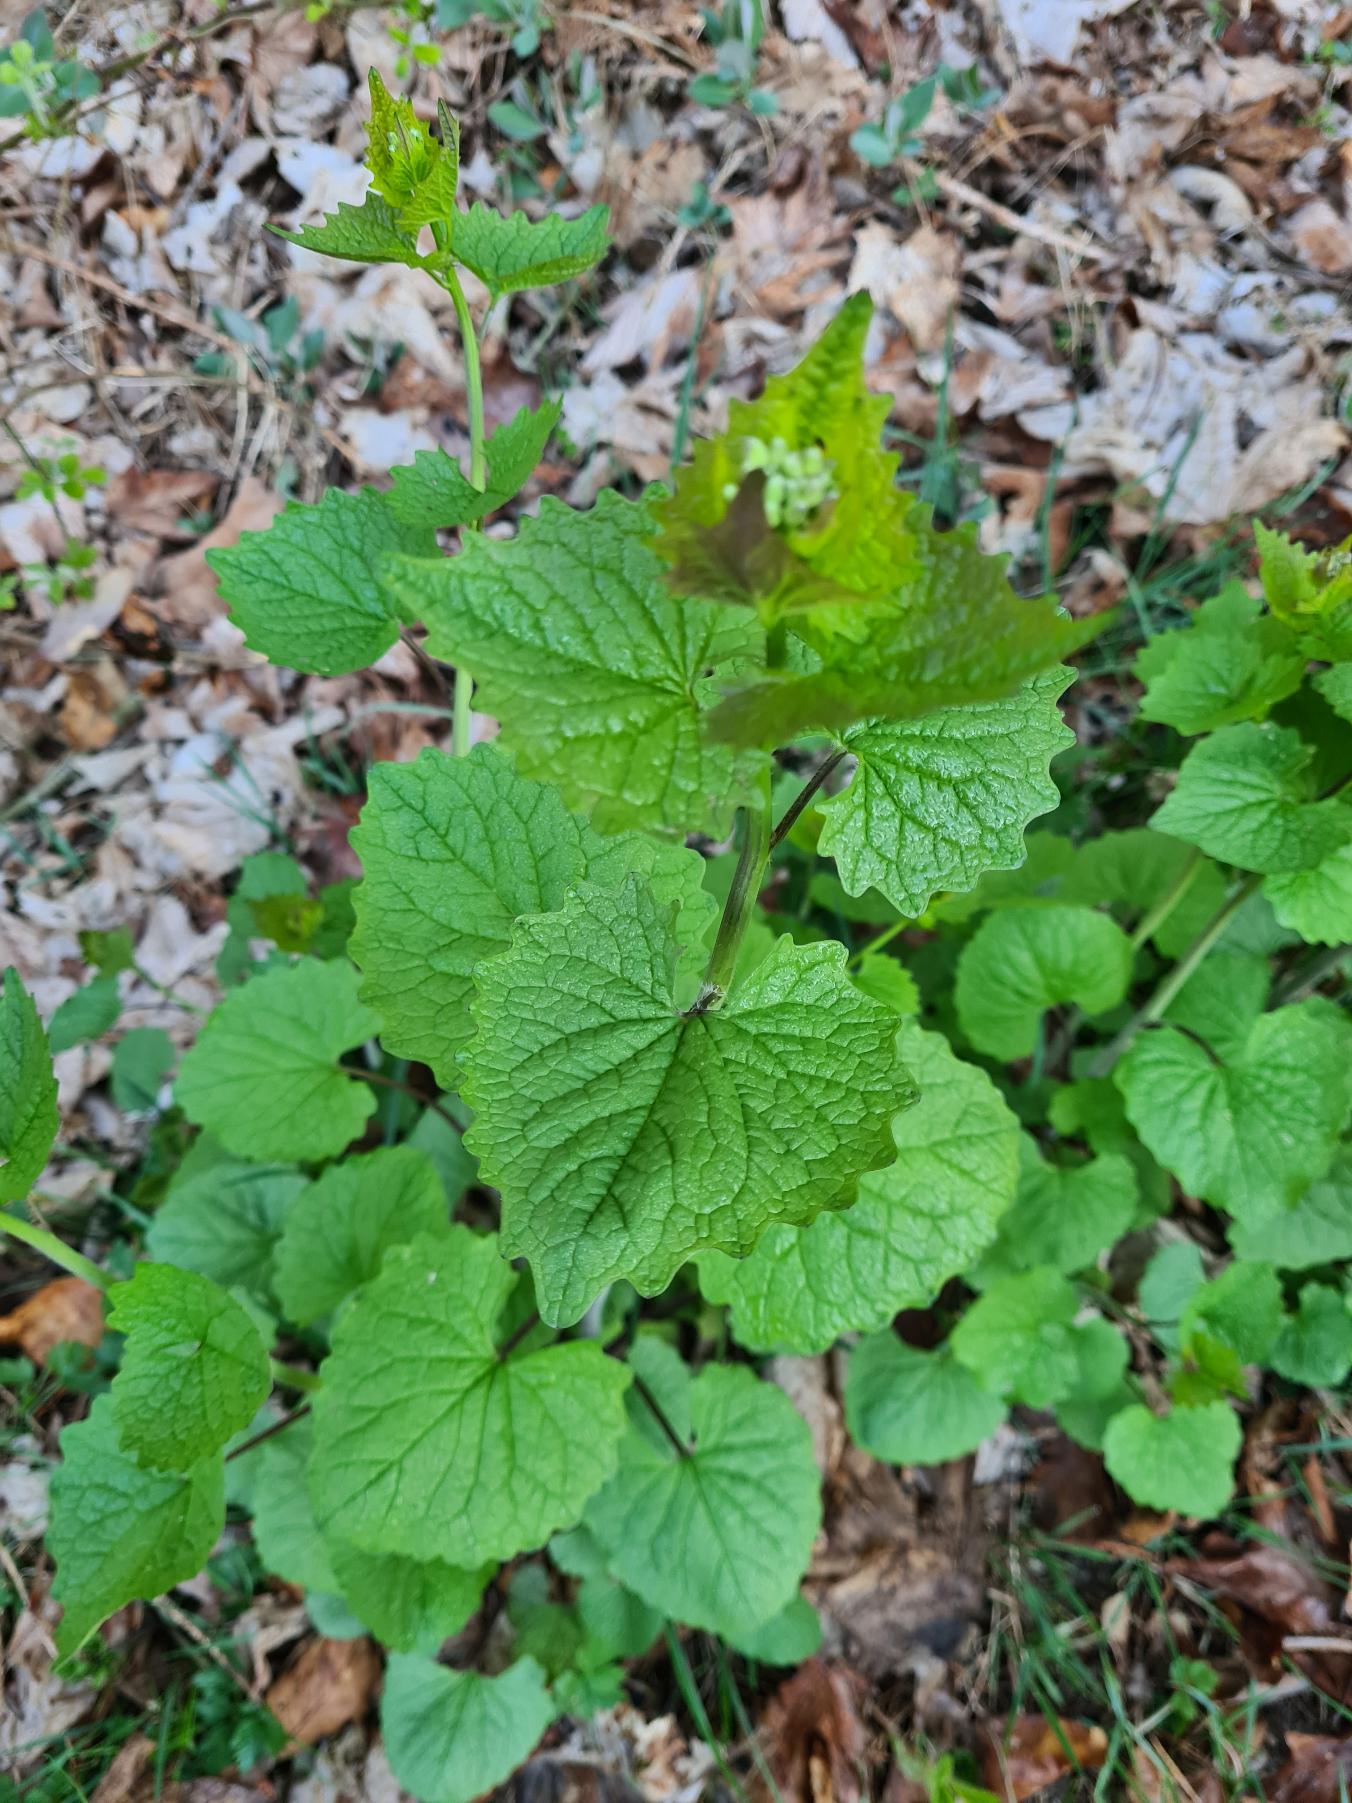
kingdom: Plantae
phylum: Tracheophyta
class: Magnoliopsida
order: Brassicales
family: Brassicaceae
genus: Alliaria
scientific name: Alliaria petiolata
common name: Løgkarse
